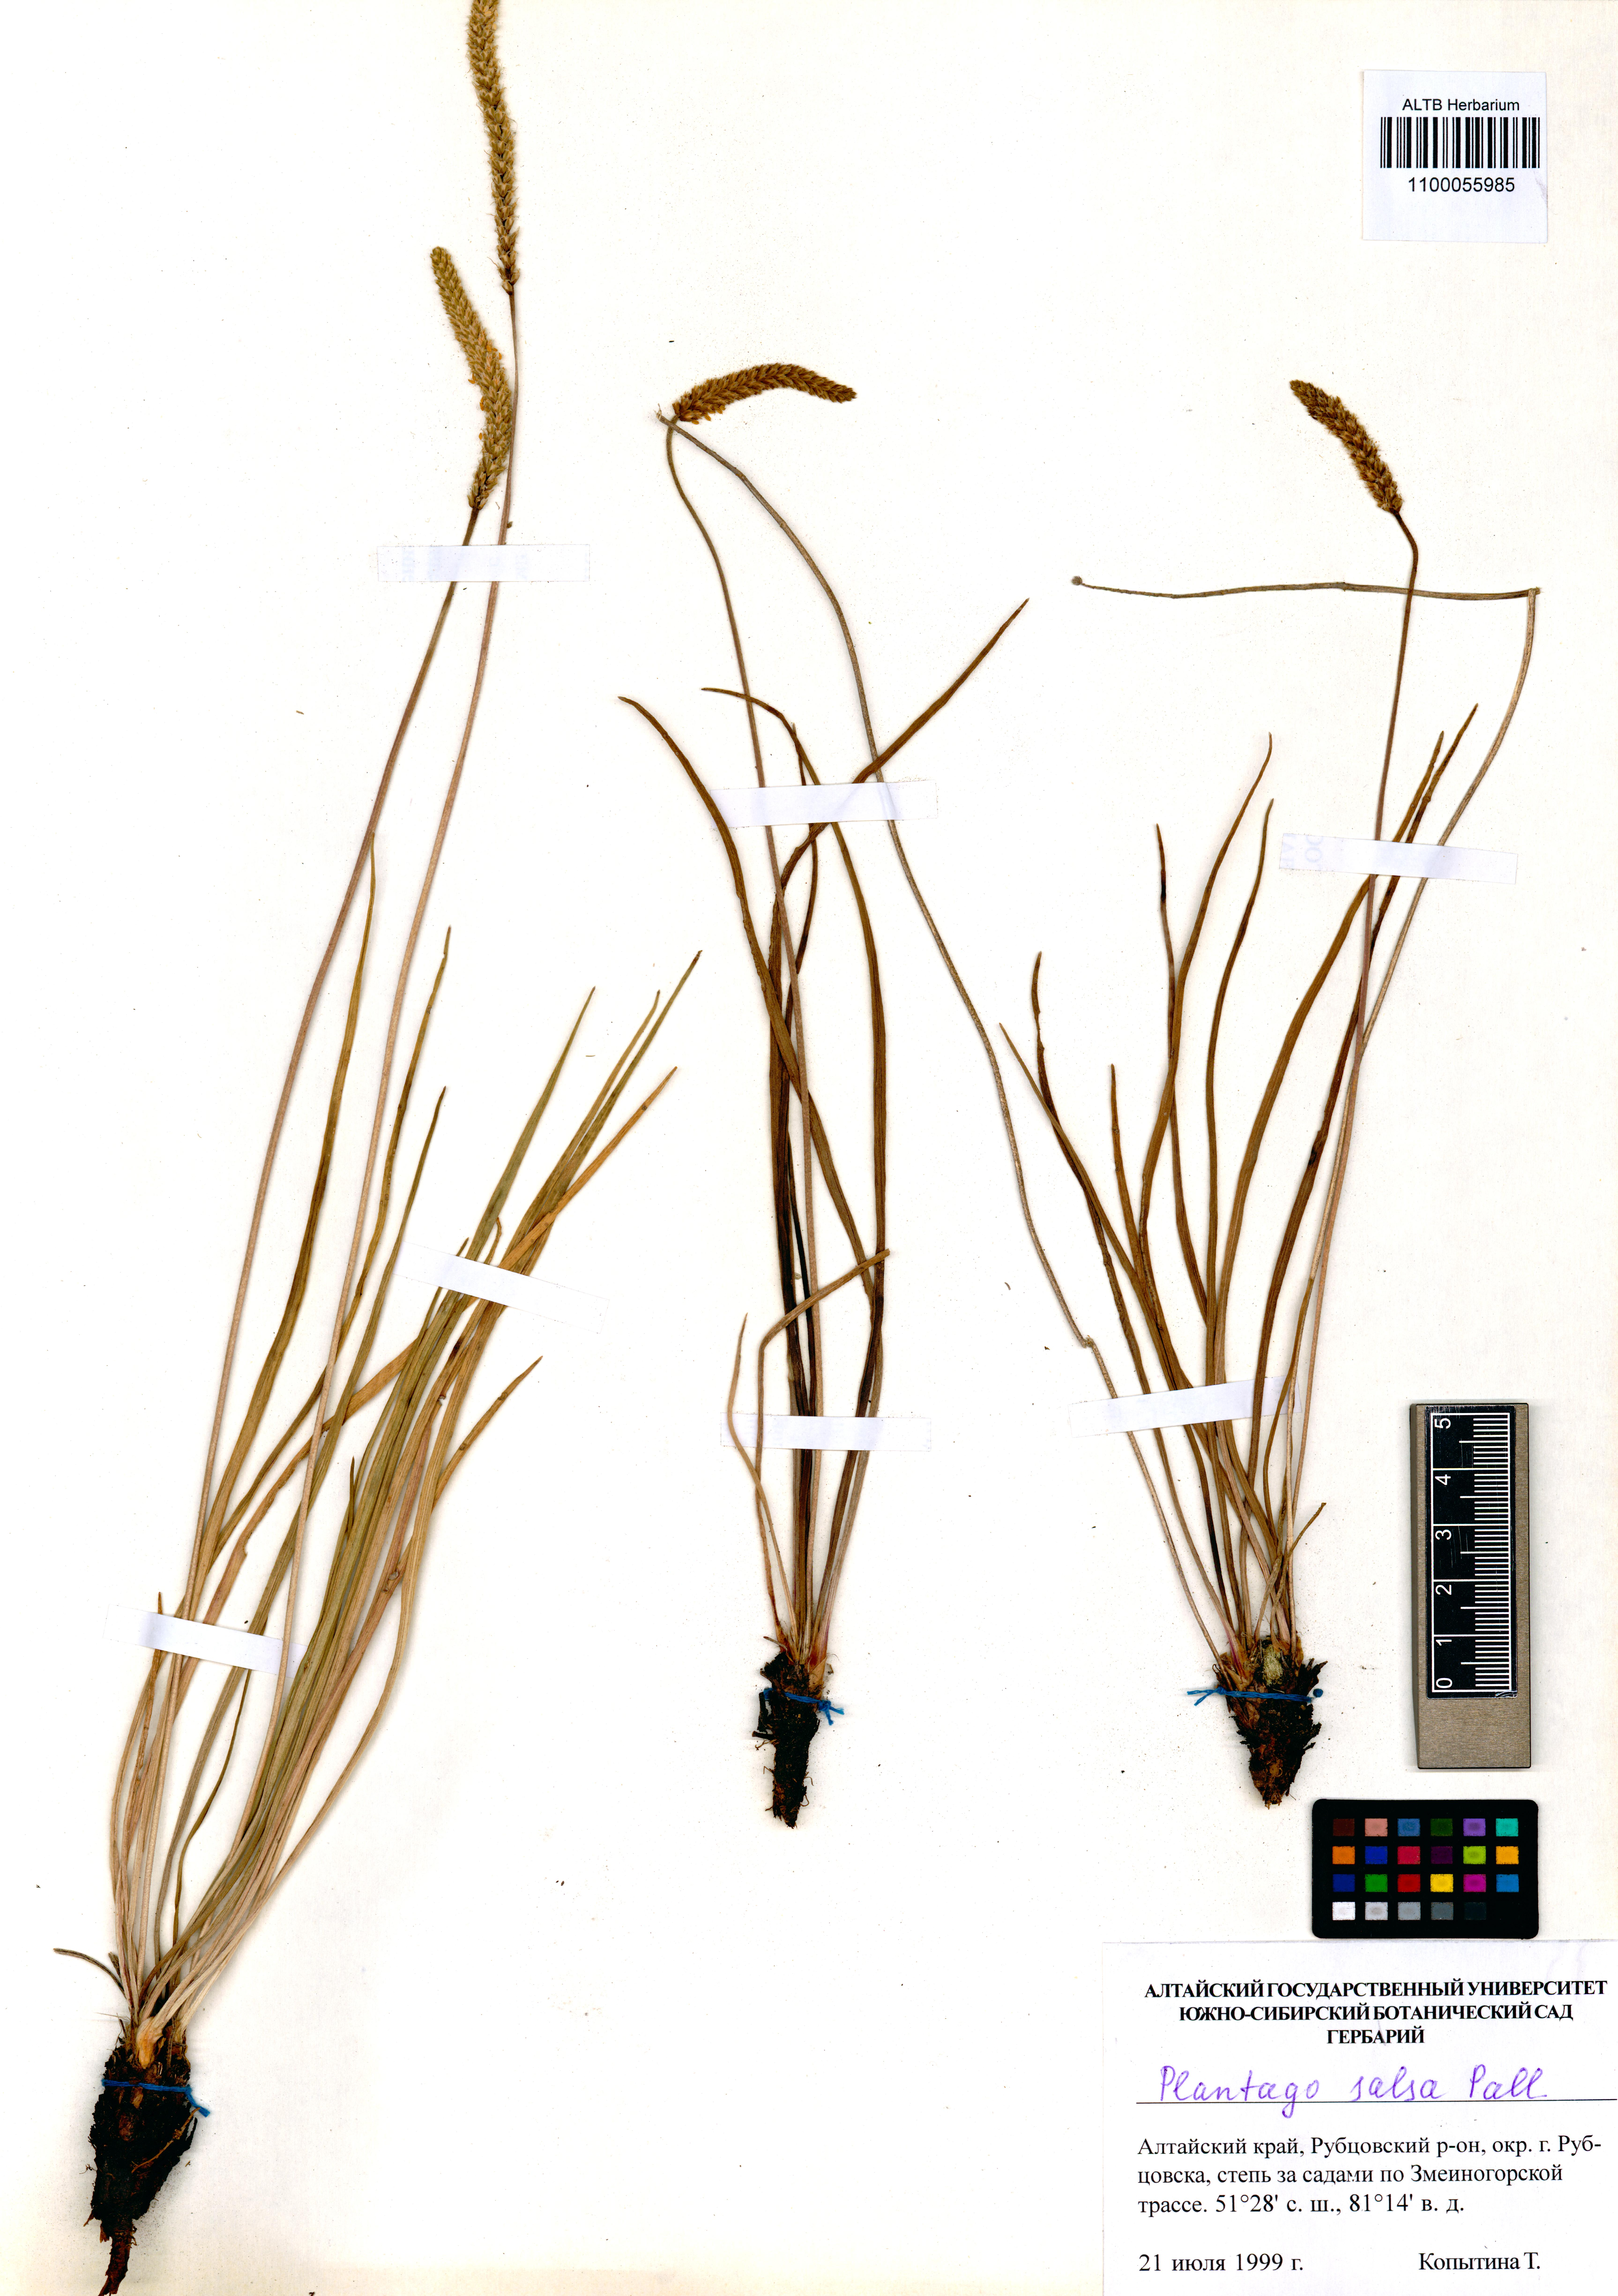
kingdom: Plantae
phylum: Tracheophyta
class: Magnoliopsida
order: Lamiales
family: Plantaginaceae
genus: Plantago
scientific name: Plantago salsa
